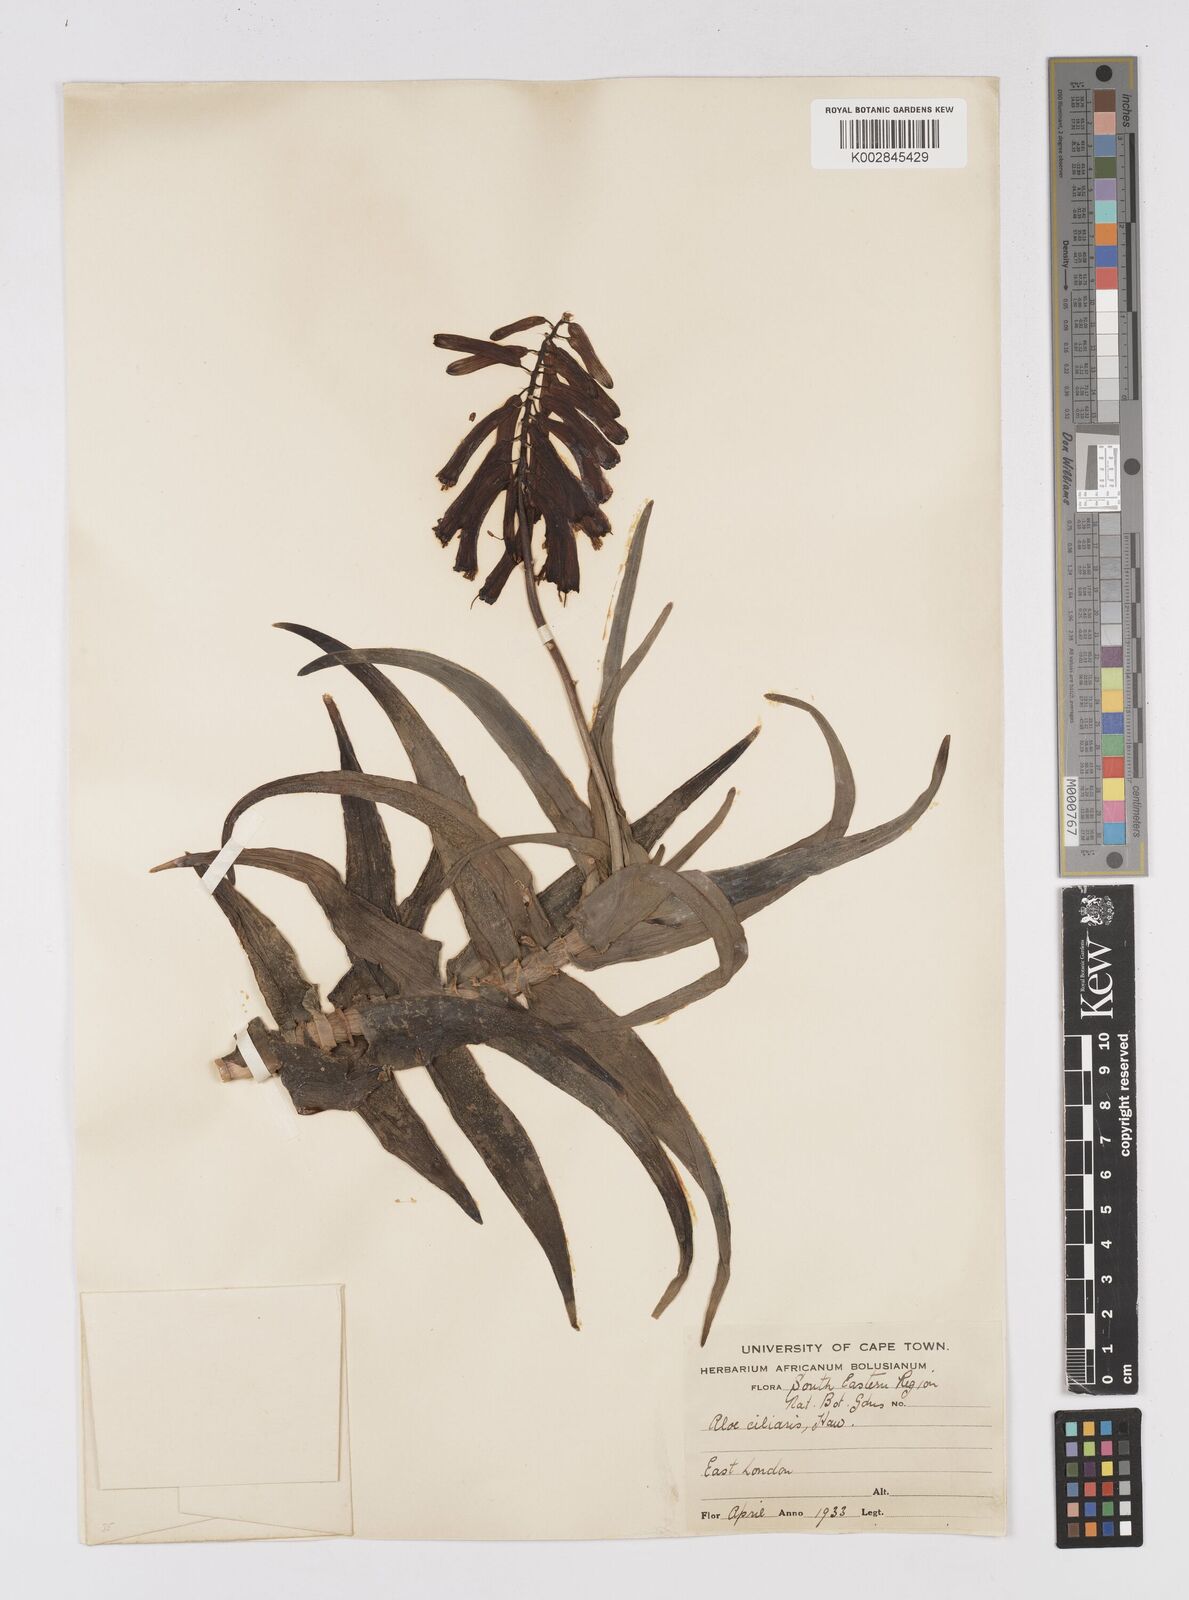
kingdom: Plantae
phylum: Tracheophyta
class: Liliopsida
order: Asparagales
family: Asphodelaceae
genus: Aloiampelos
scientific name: Aloiampelos ciliaris
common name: Climbing aloe
